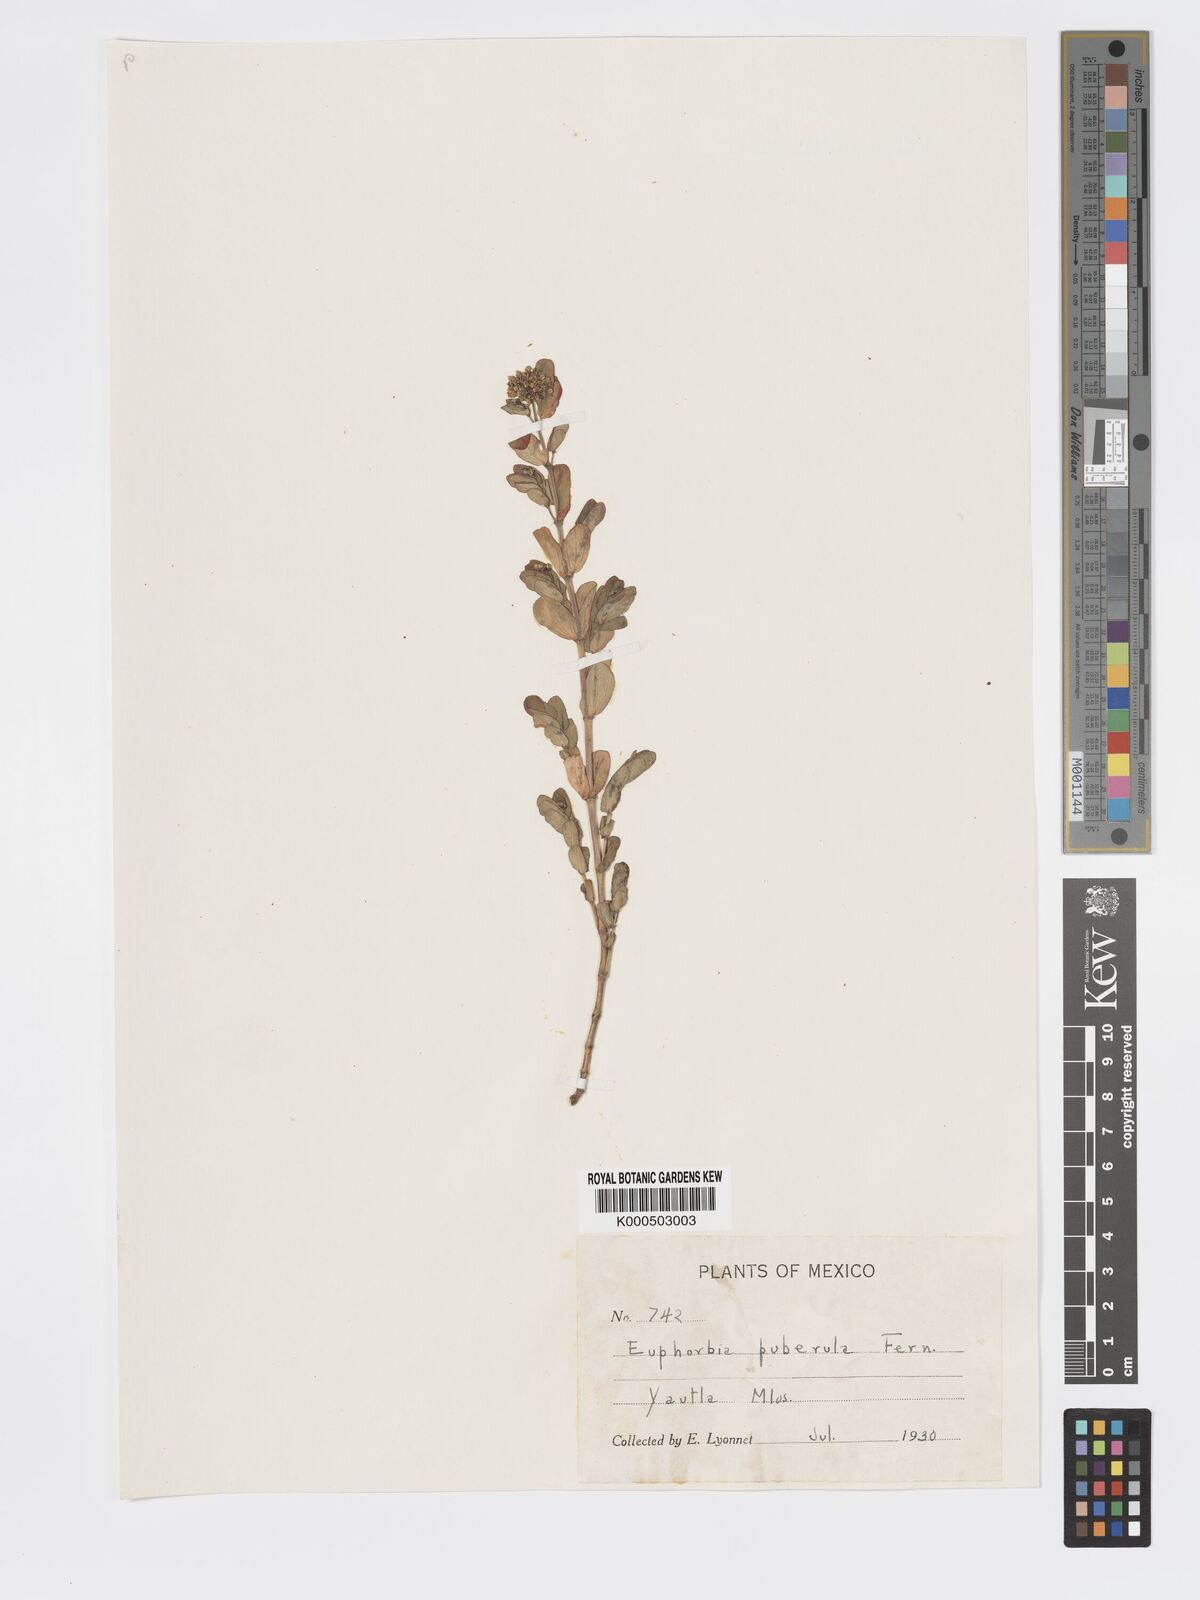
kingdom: Plantae
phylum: Tracheophyta
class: Magnoliopsida
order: Malpighiales
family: Euphorbiaceae
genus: Euphorbia
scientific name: Euphorbia berteroana
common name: Bertero's sandmat
